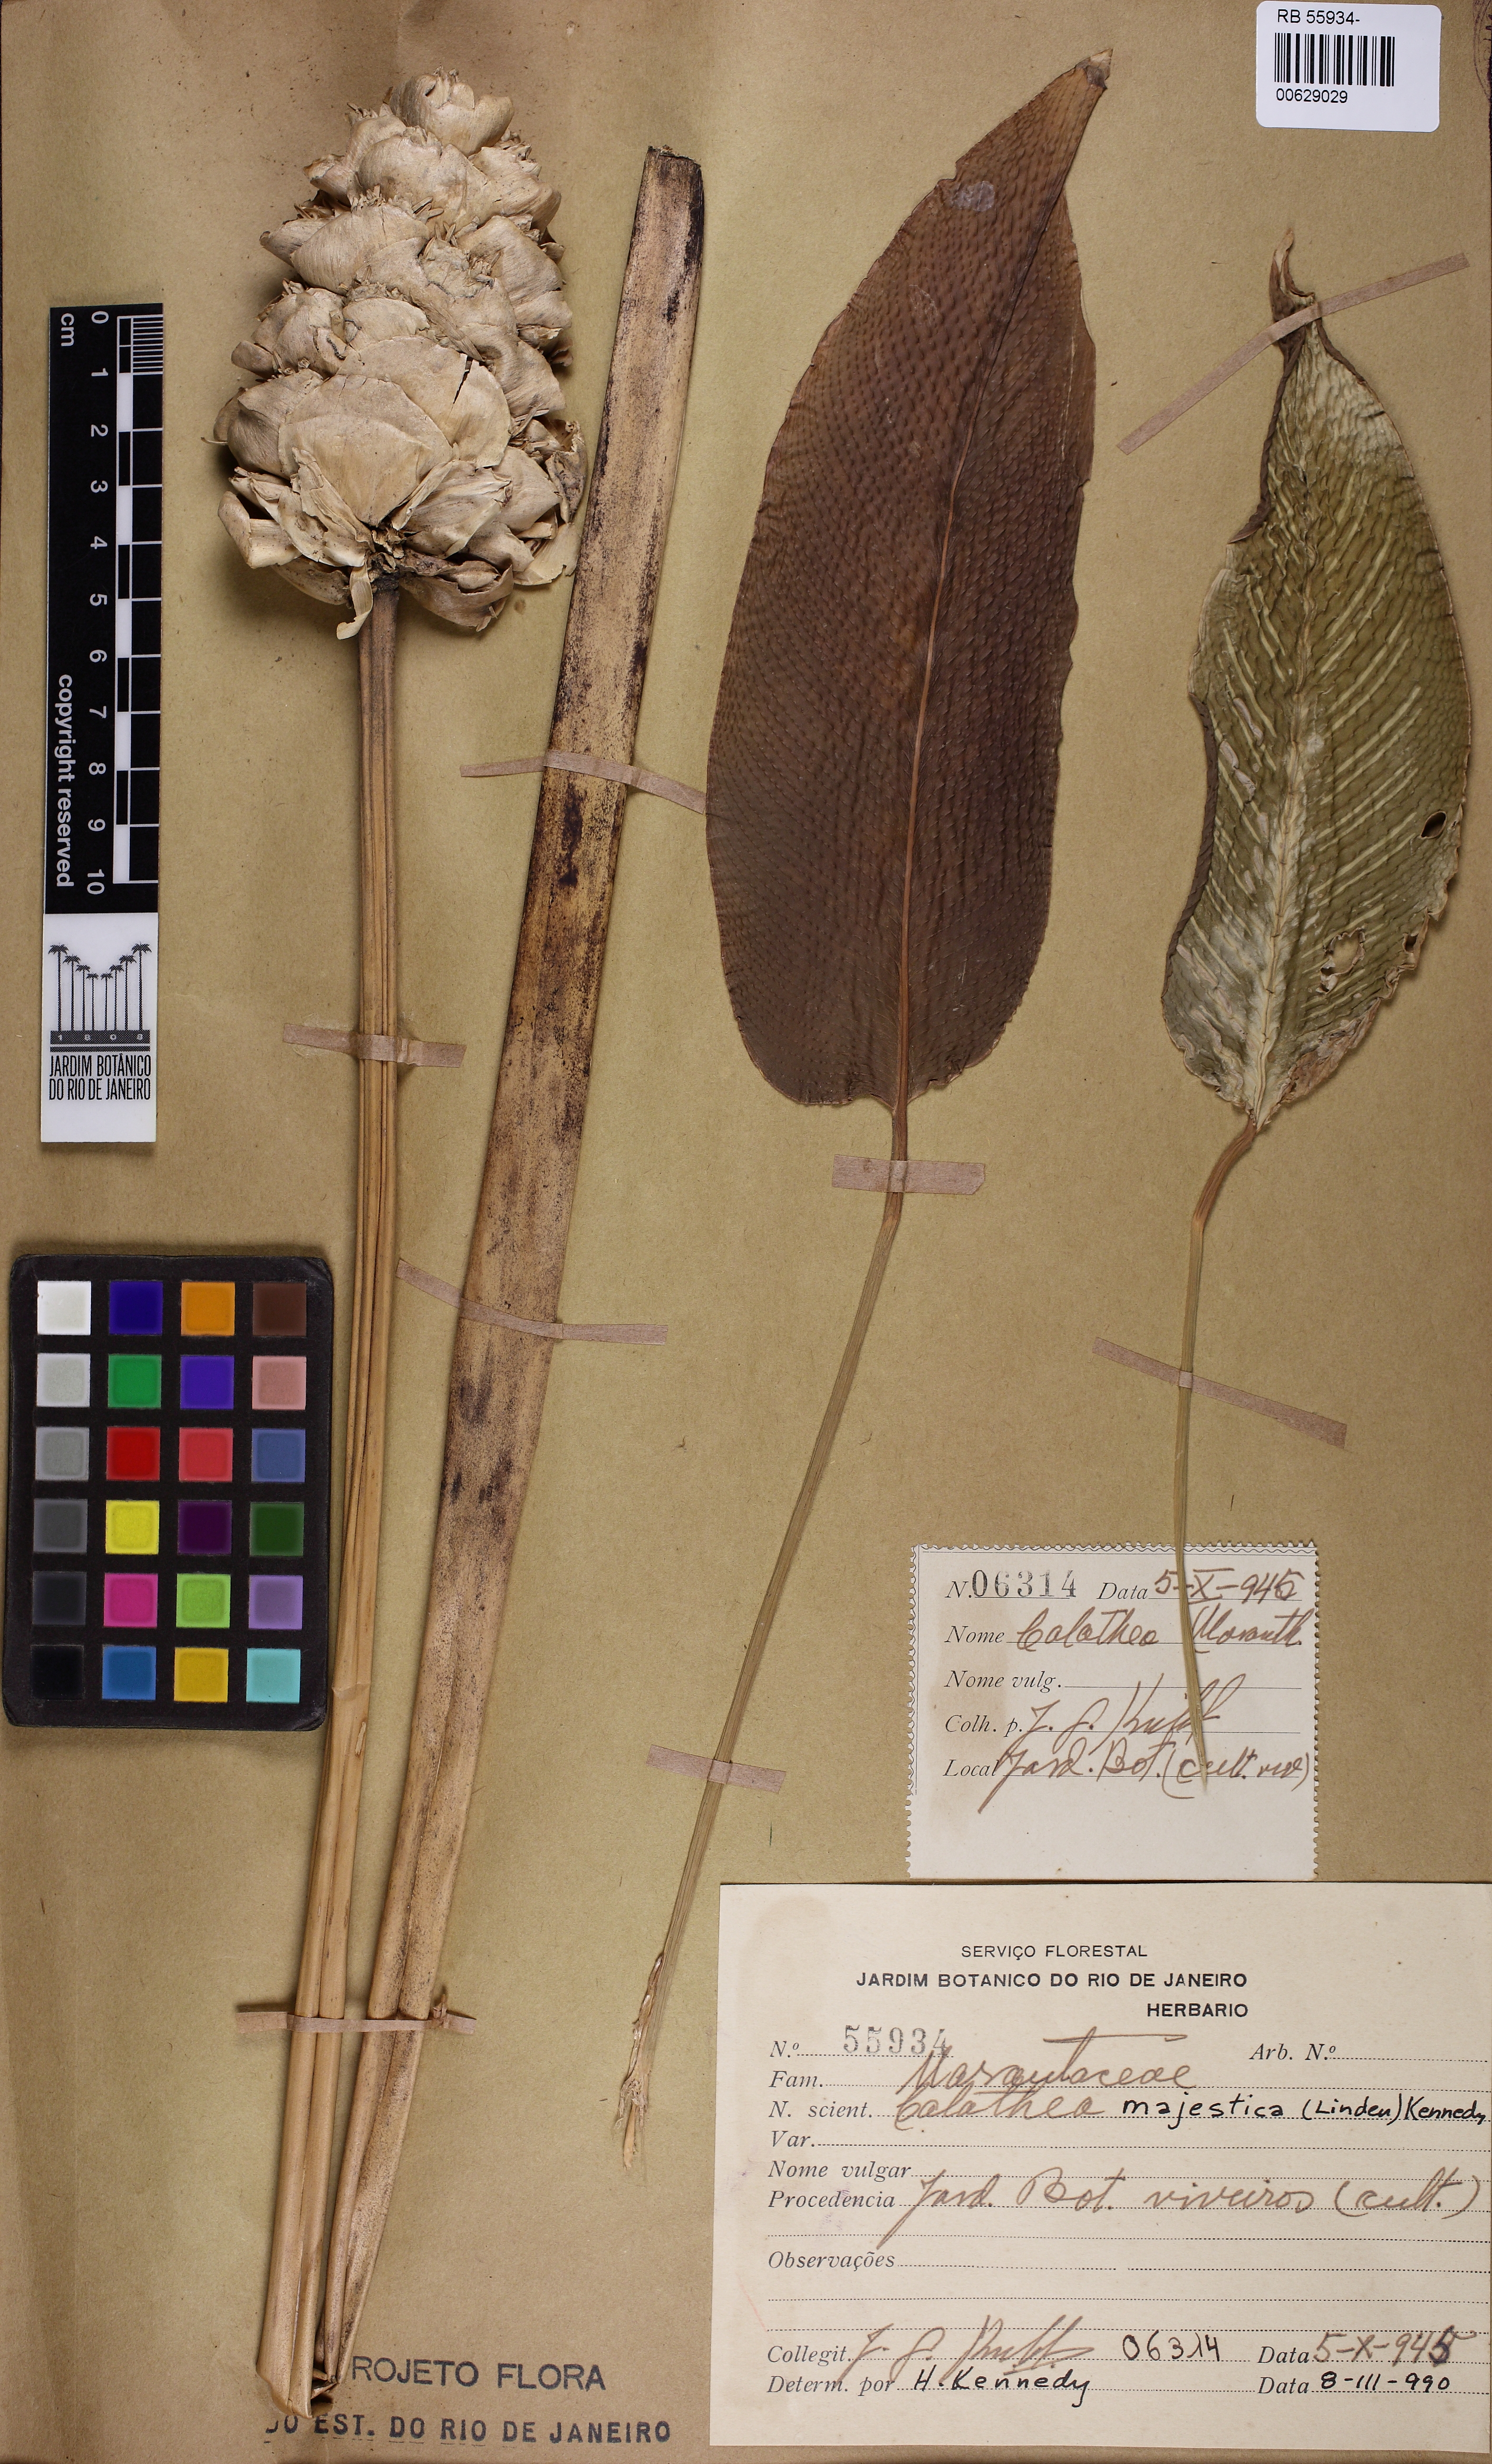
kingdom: Plantae
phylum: Tracheophyta
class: Liliopsida
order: Zingiberales
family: Marantaceae
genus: Goeppertia
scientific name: Goeppertia majestica
